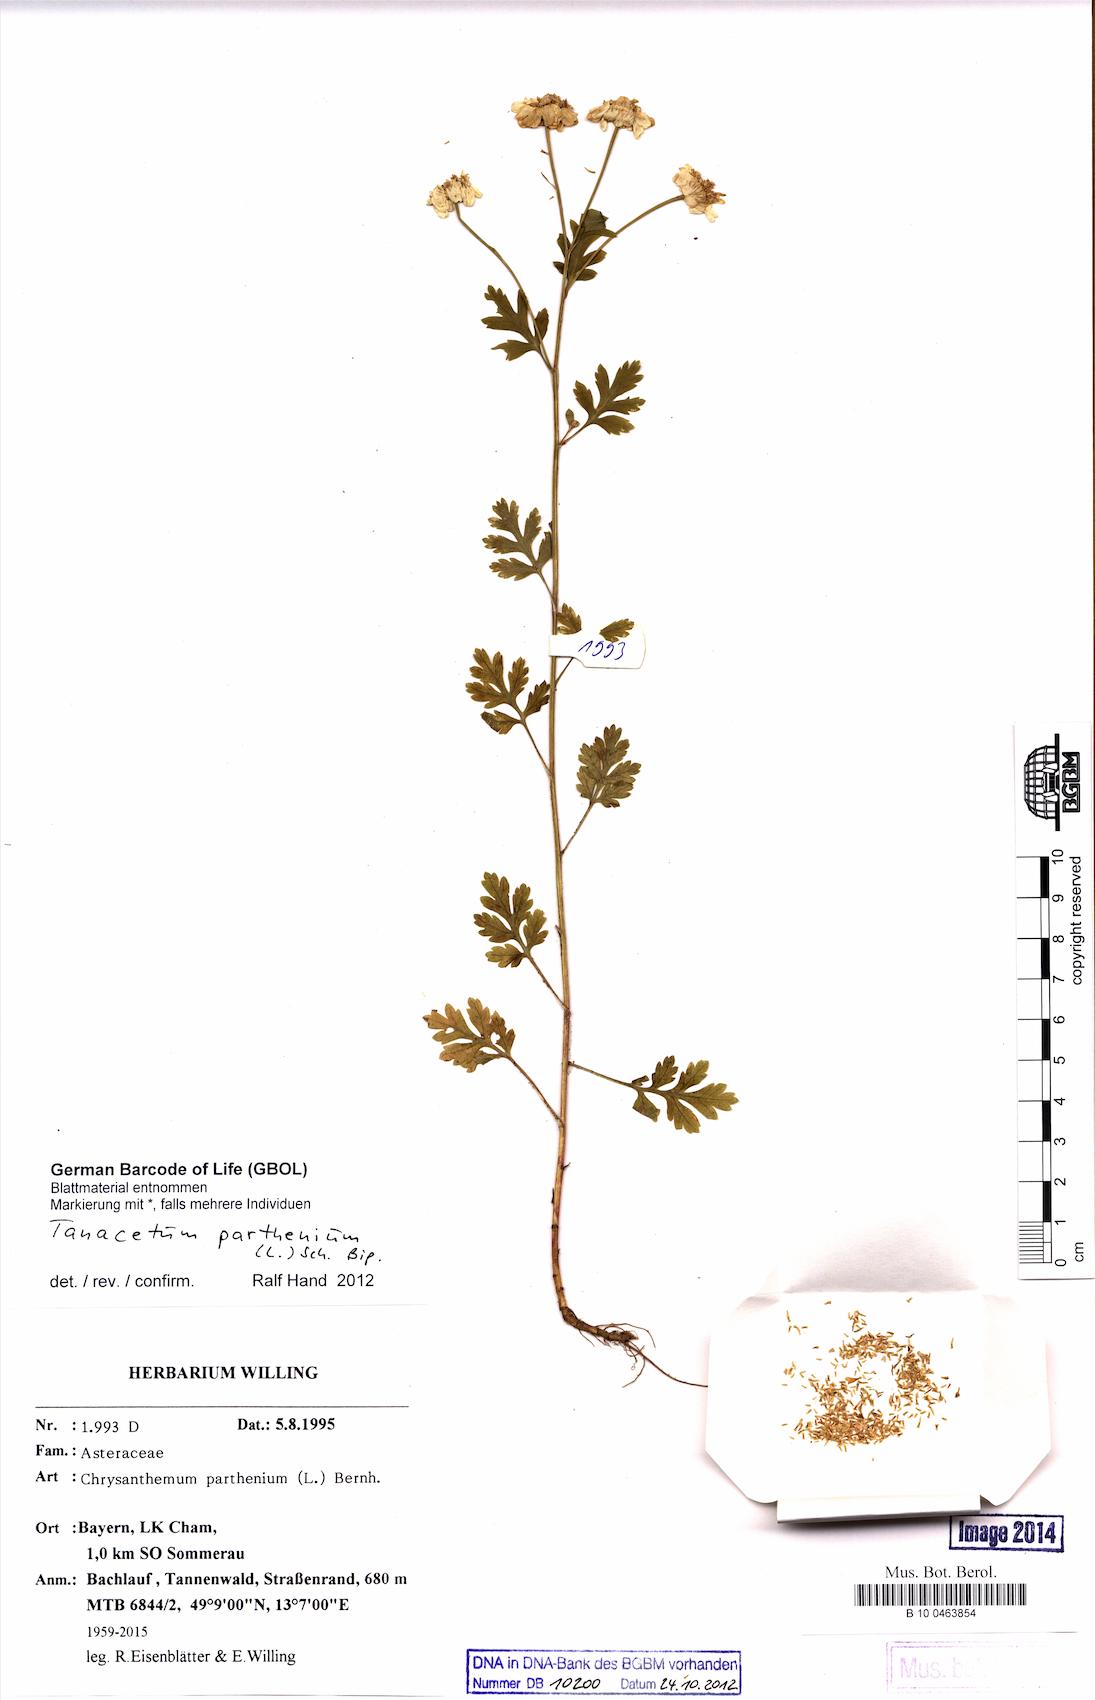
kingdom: Plantae
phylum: Tracheophyta
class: Magnoliopsida
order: Asterales
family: Asteraceae
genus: Tanacetum
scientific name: Tanacetum parthenium
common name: Feverfew
